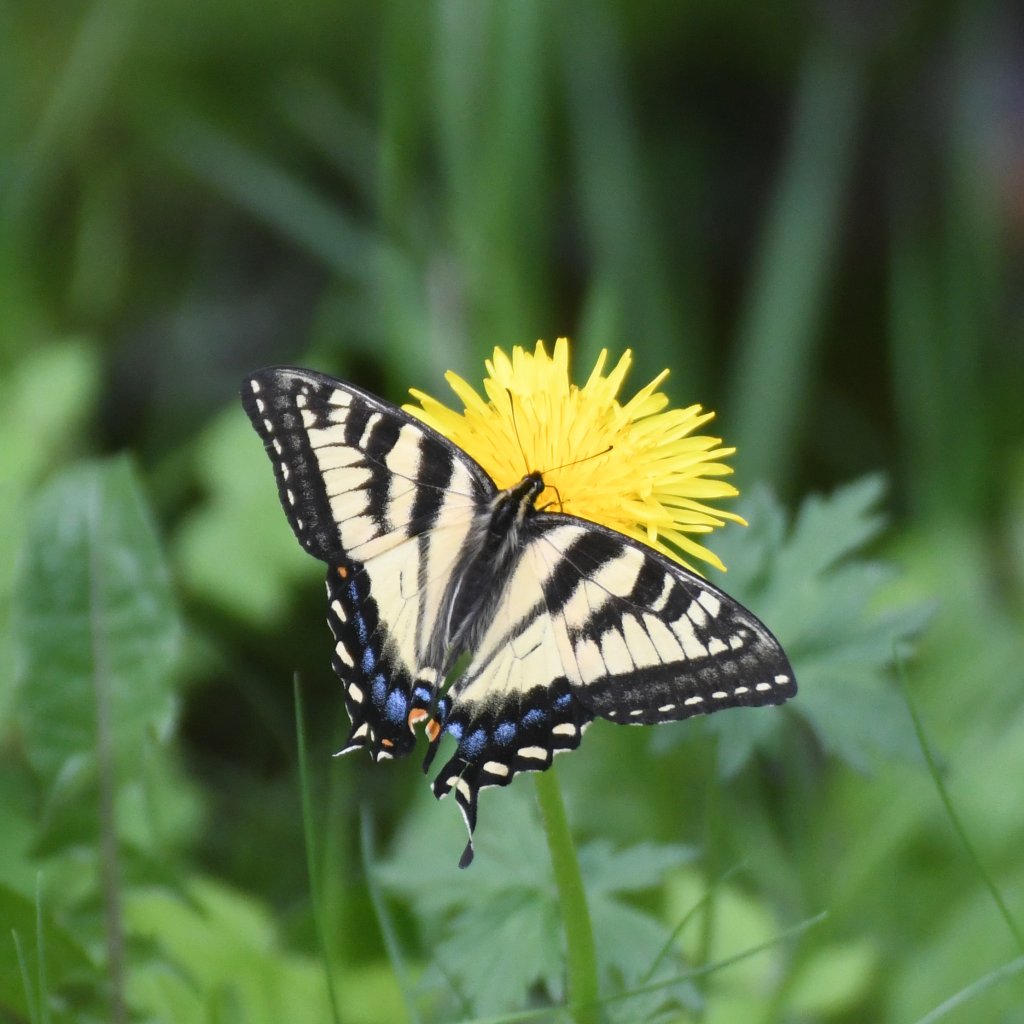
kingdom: Animalia
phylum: Arthropoda
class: Insecta
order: Lepidoptera
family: Papilionidae
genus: Pterourus
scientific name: Pterourus canadensis
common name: Canadian Tiger Swallowtail
